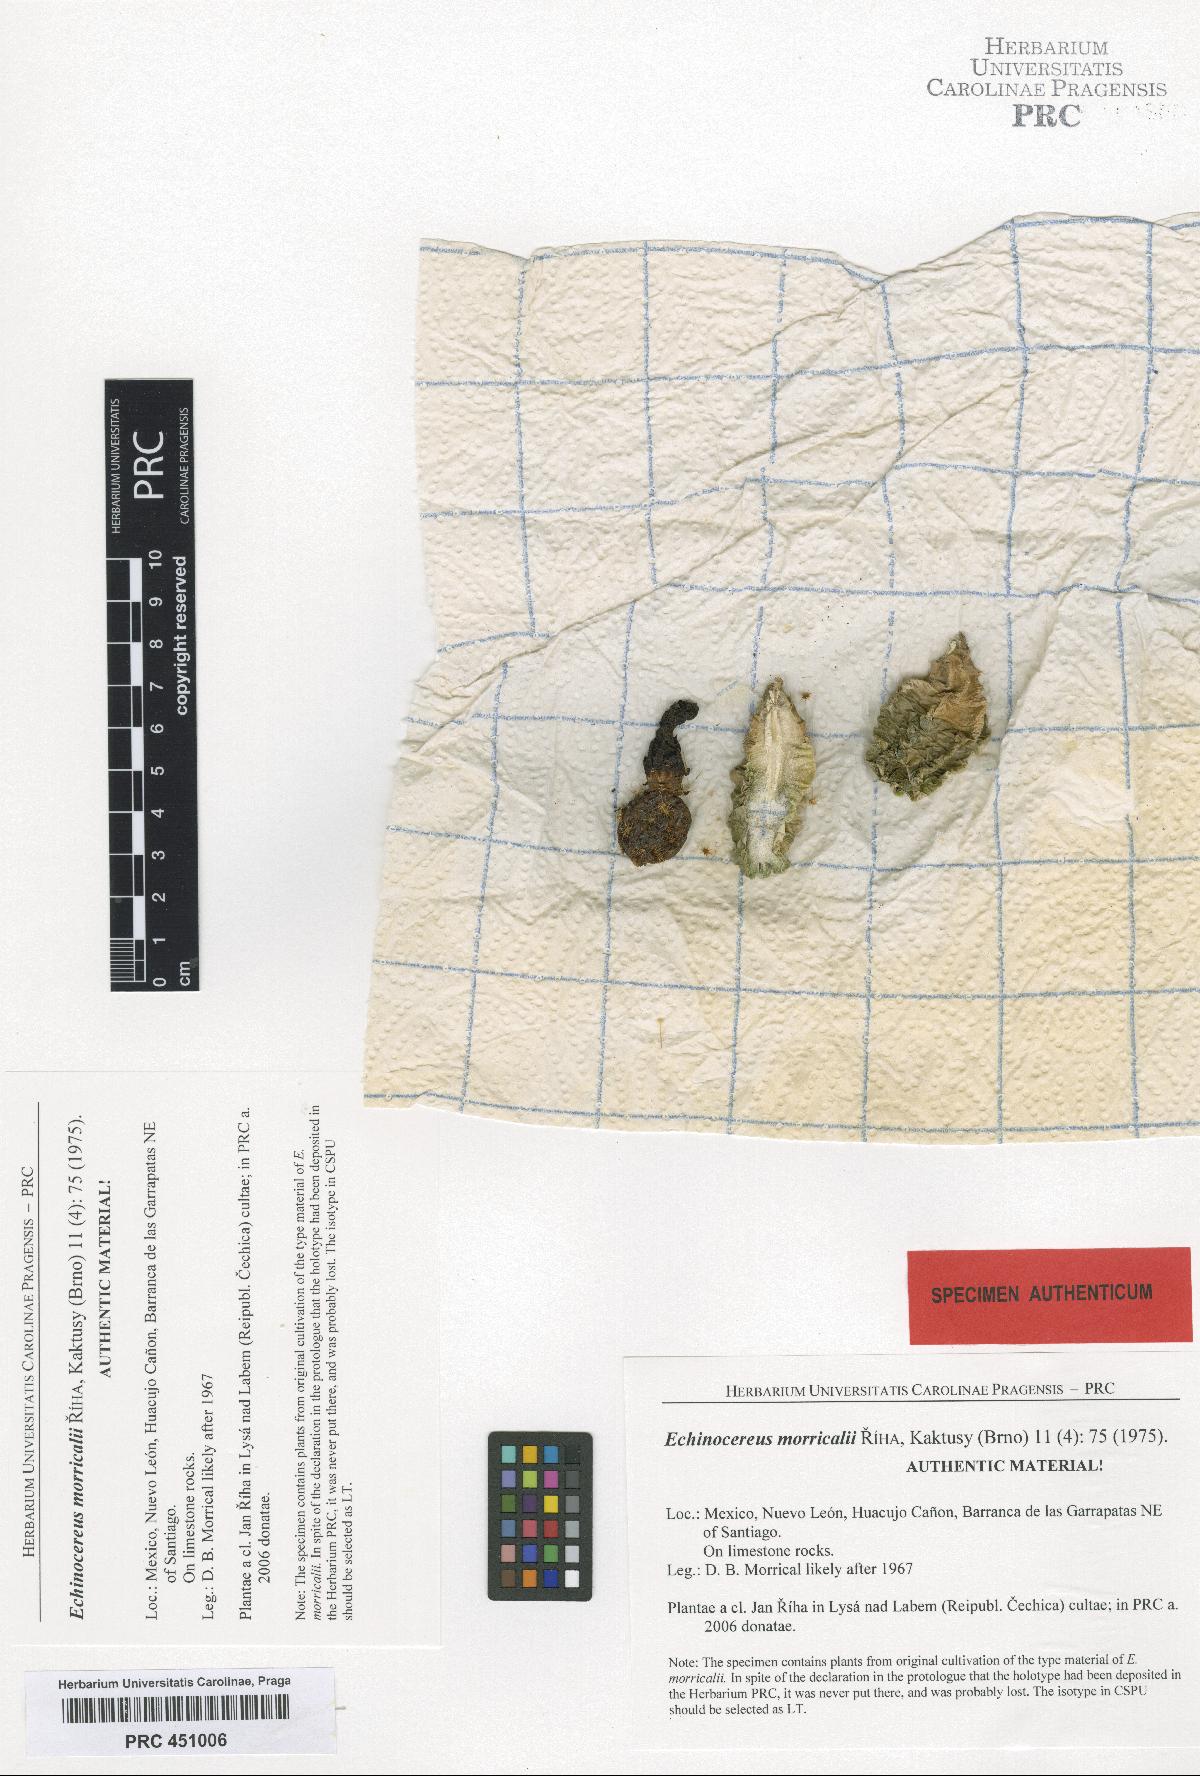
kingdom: Plantae
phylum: Tracheophyta
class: Magnoliopsida
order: Caryophyllales
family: Cactaceae
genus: Echinocereus
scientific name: Echinocereus viereckii
